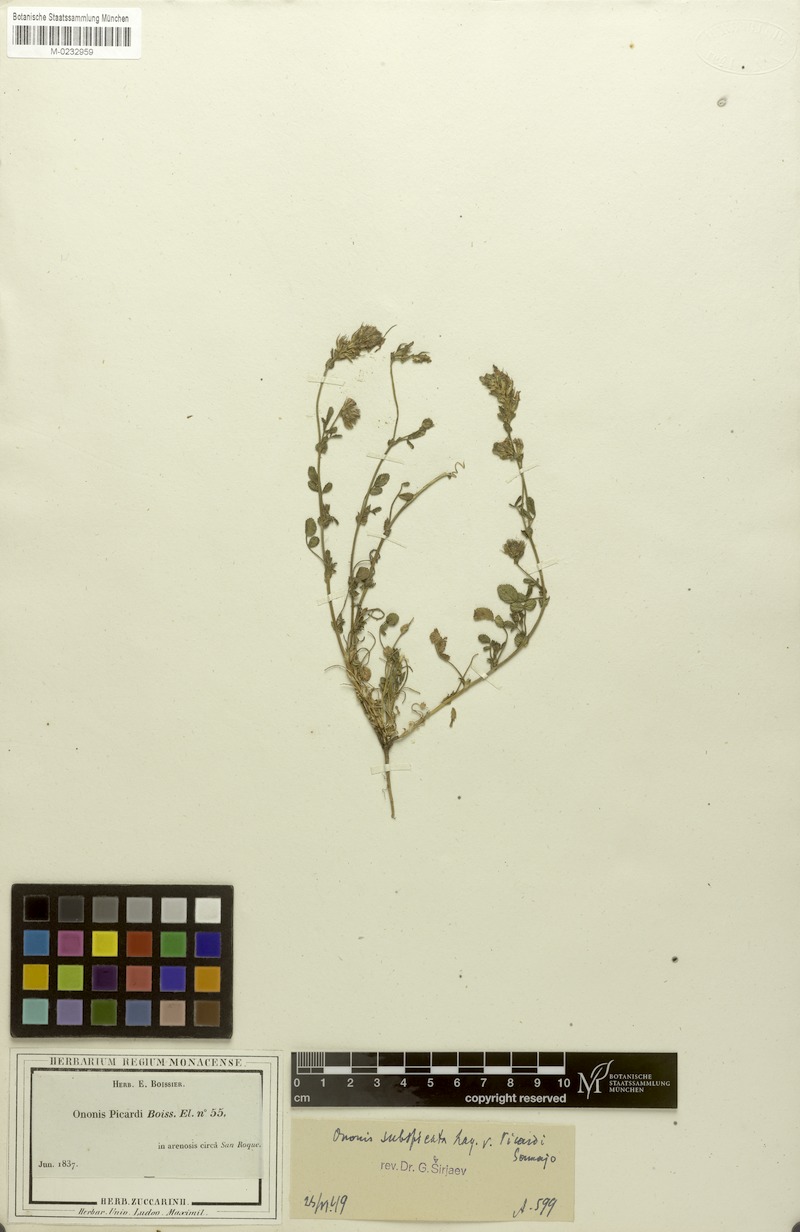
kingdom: Plantae
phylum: Tracheophyta
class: Magnoliopsida
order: Fabales
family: Fabaceae
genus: Ononis
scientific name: Ononis baetica
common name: Andalucian restharrow
